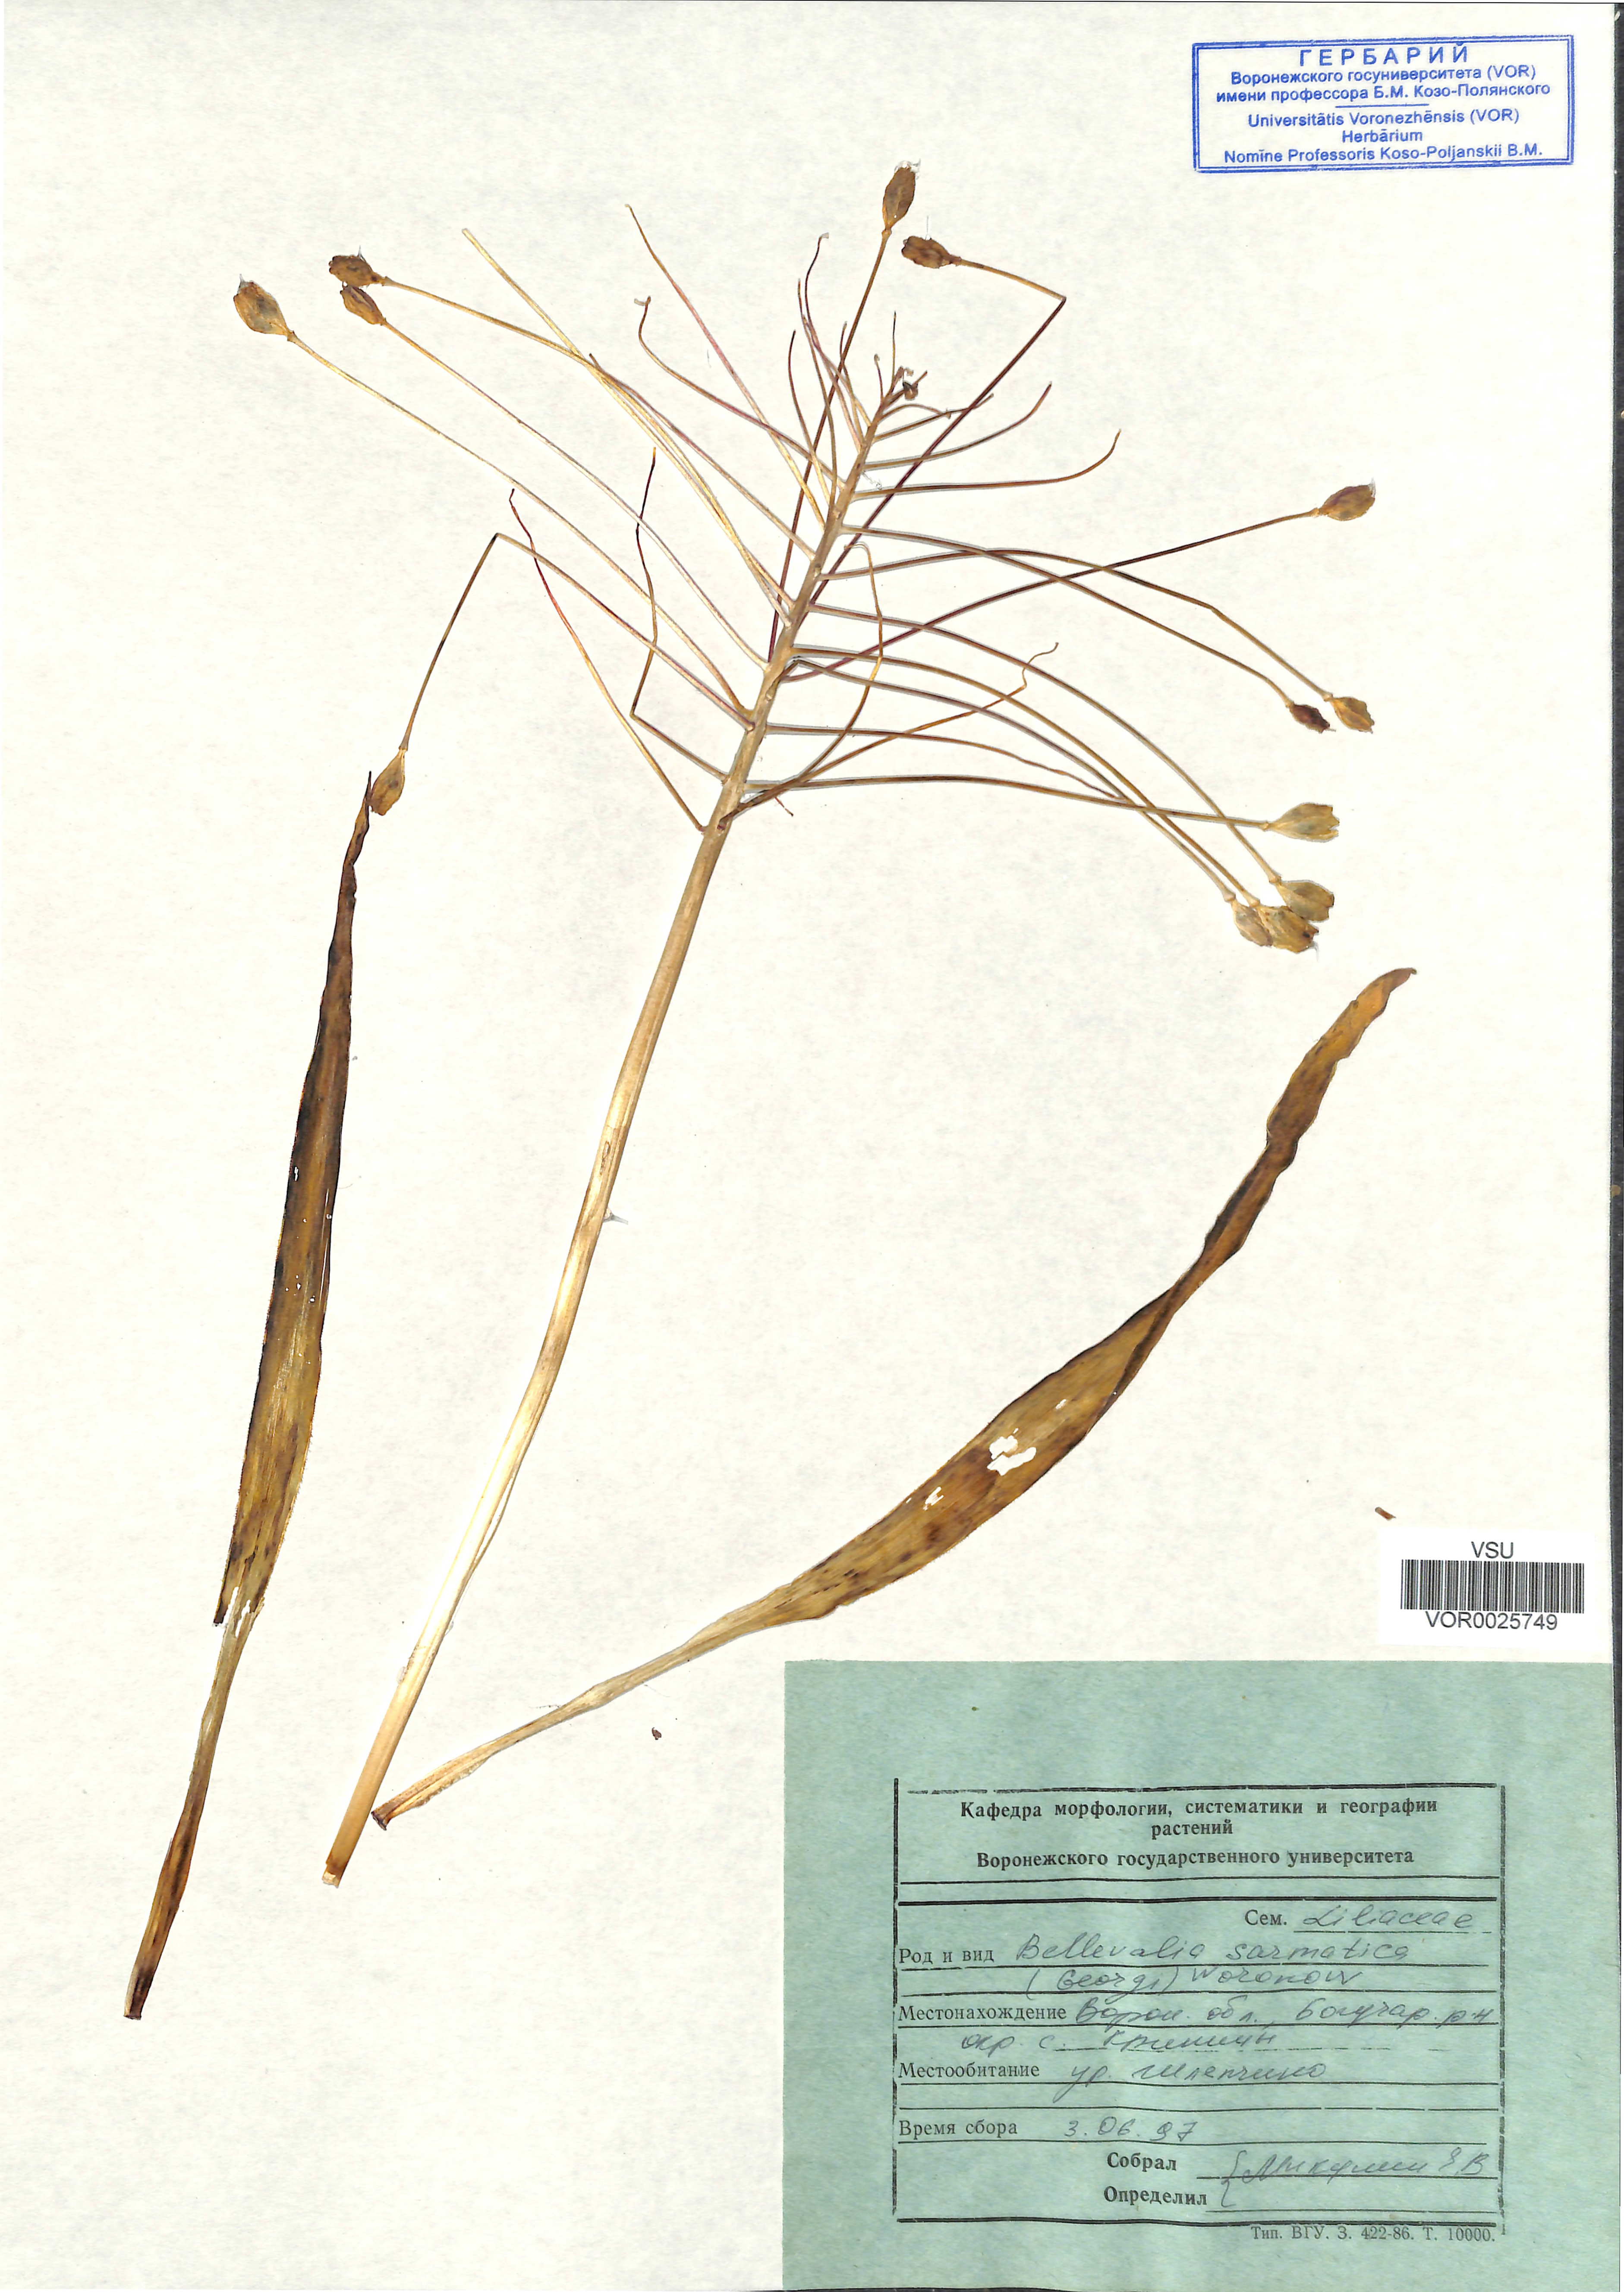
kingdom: Plantae
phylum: Tracheophyta
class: Liliopsida
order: Asparagales
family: Asparagaceae
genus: Bellevalia
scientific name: Bellevalia speciosa
